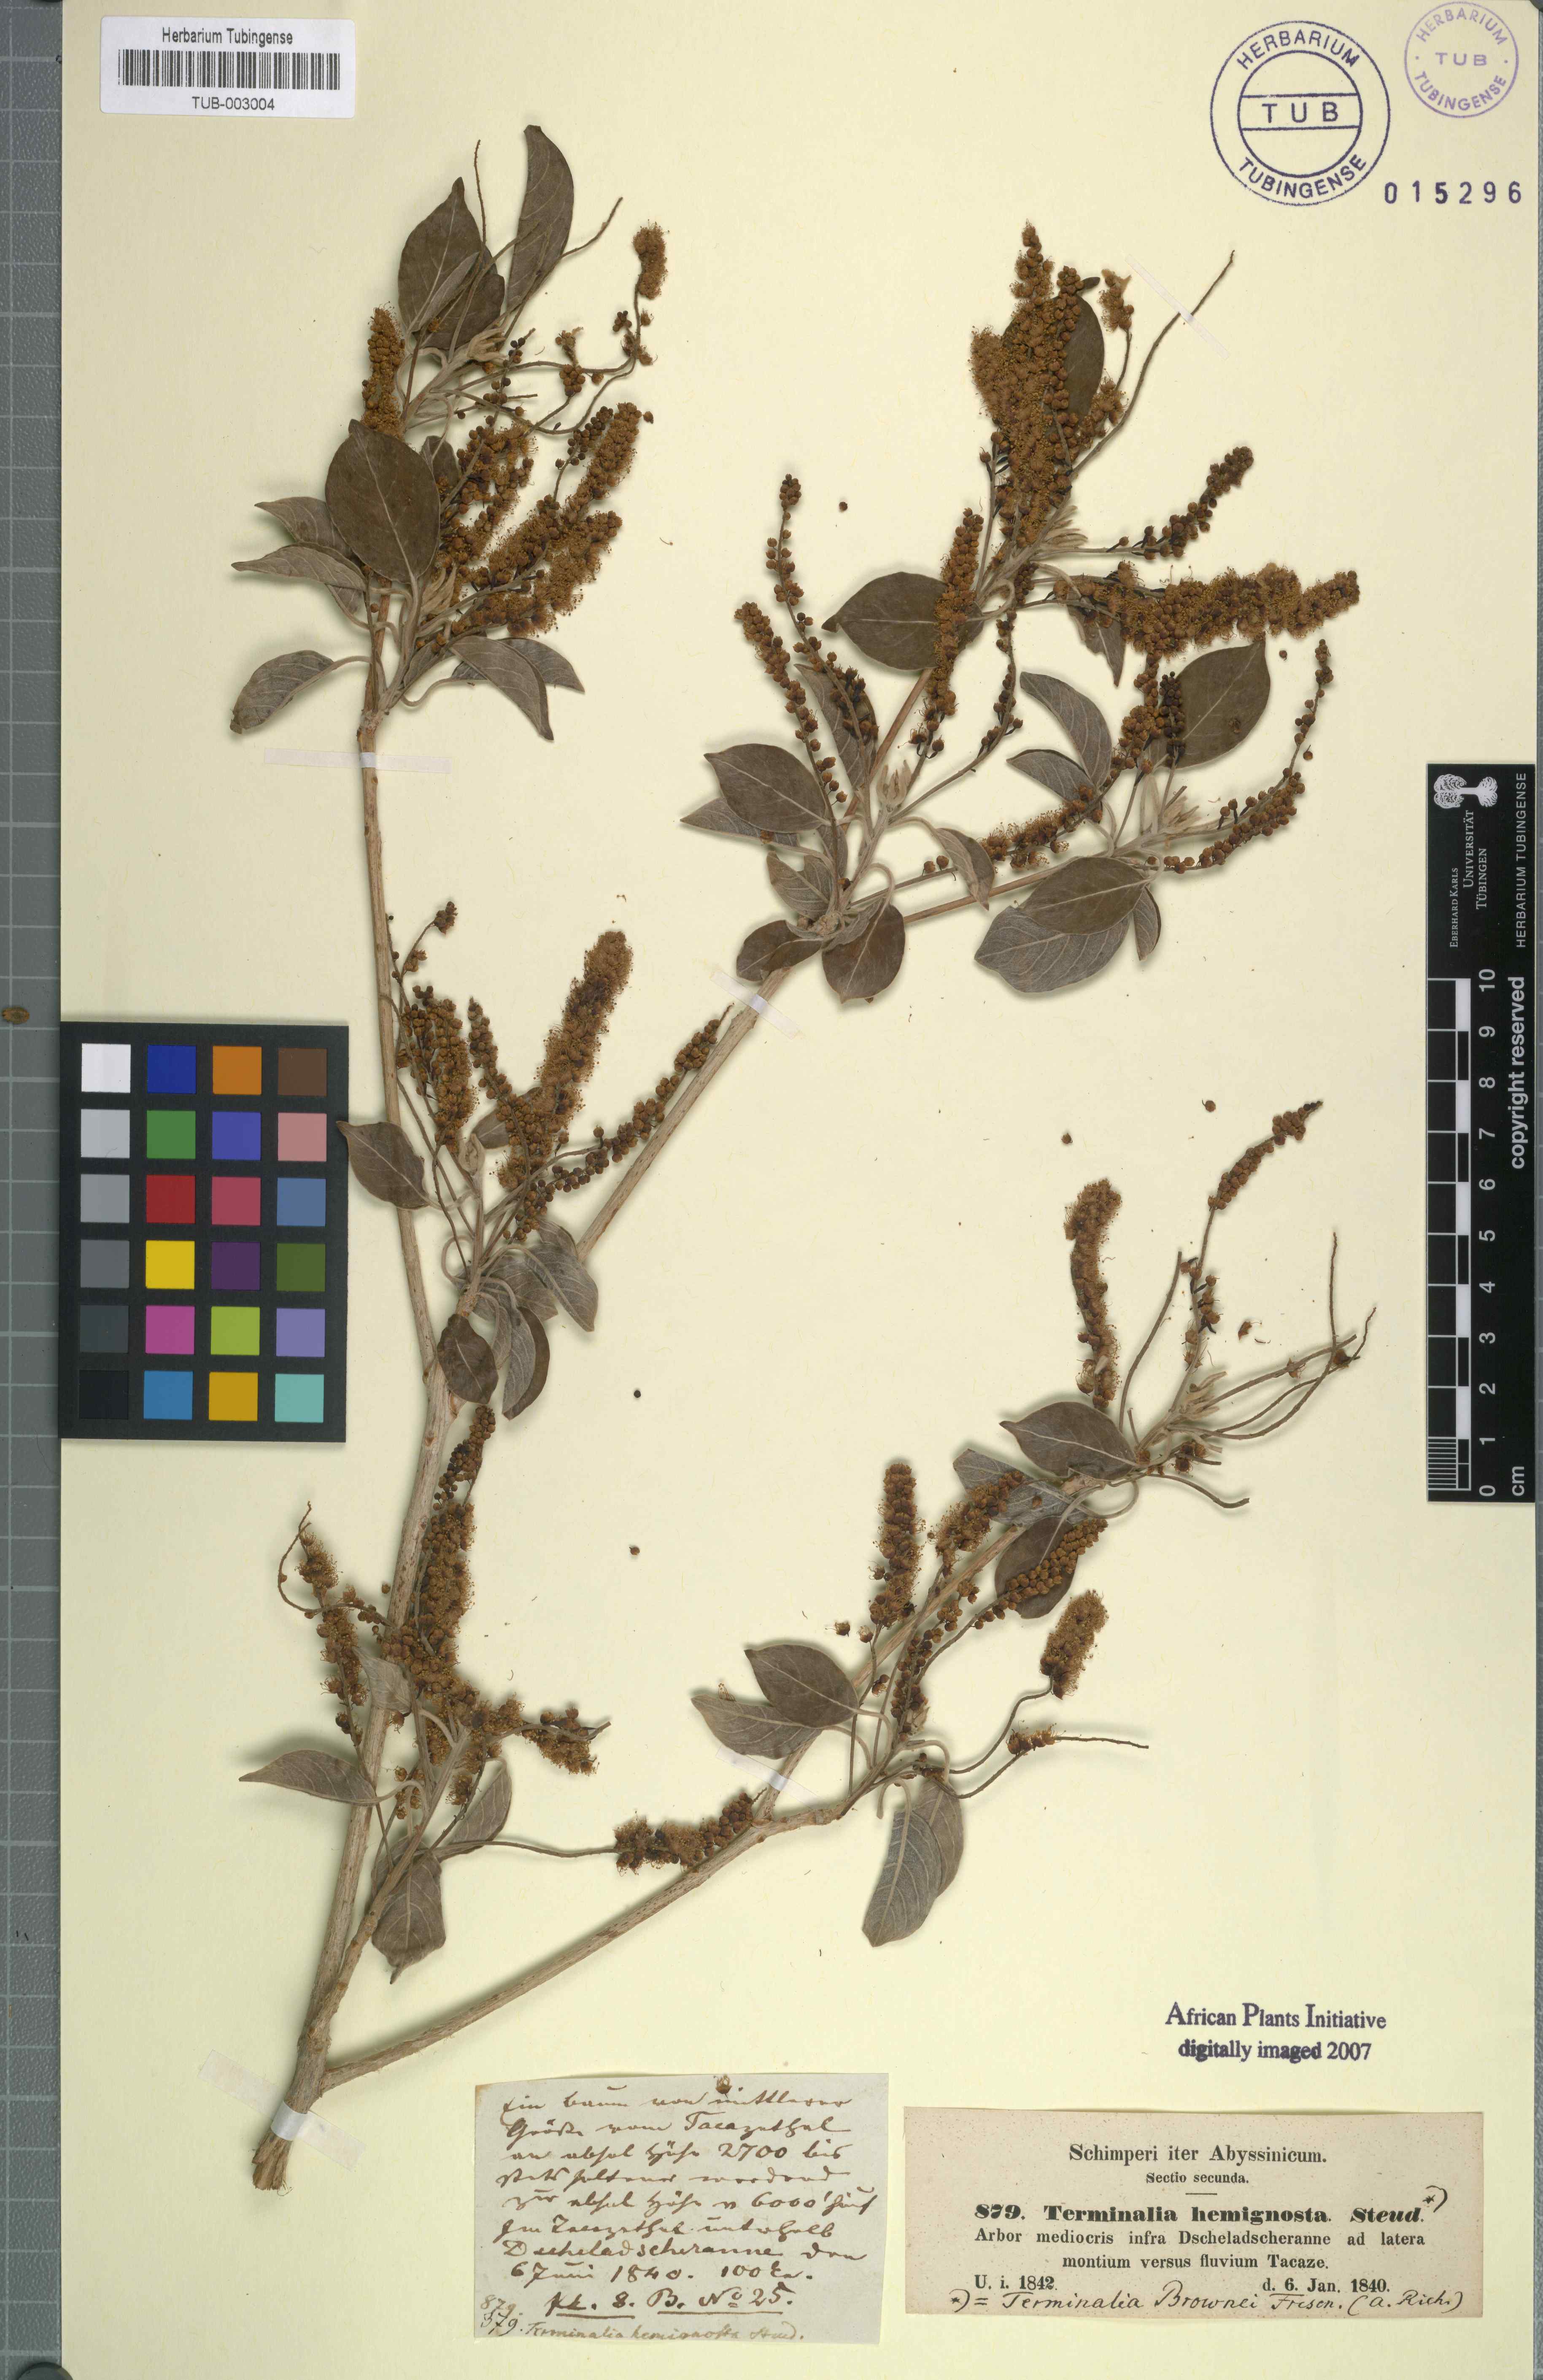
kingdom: Plantae
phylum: Tracheophyta
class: Magnoliopsida
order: Myrtales
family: Combretaceae
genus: Terminalia
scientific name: Terminalia brownii
